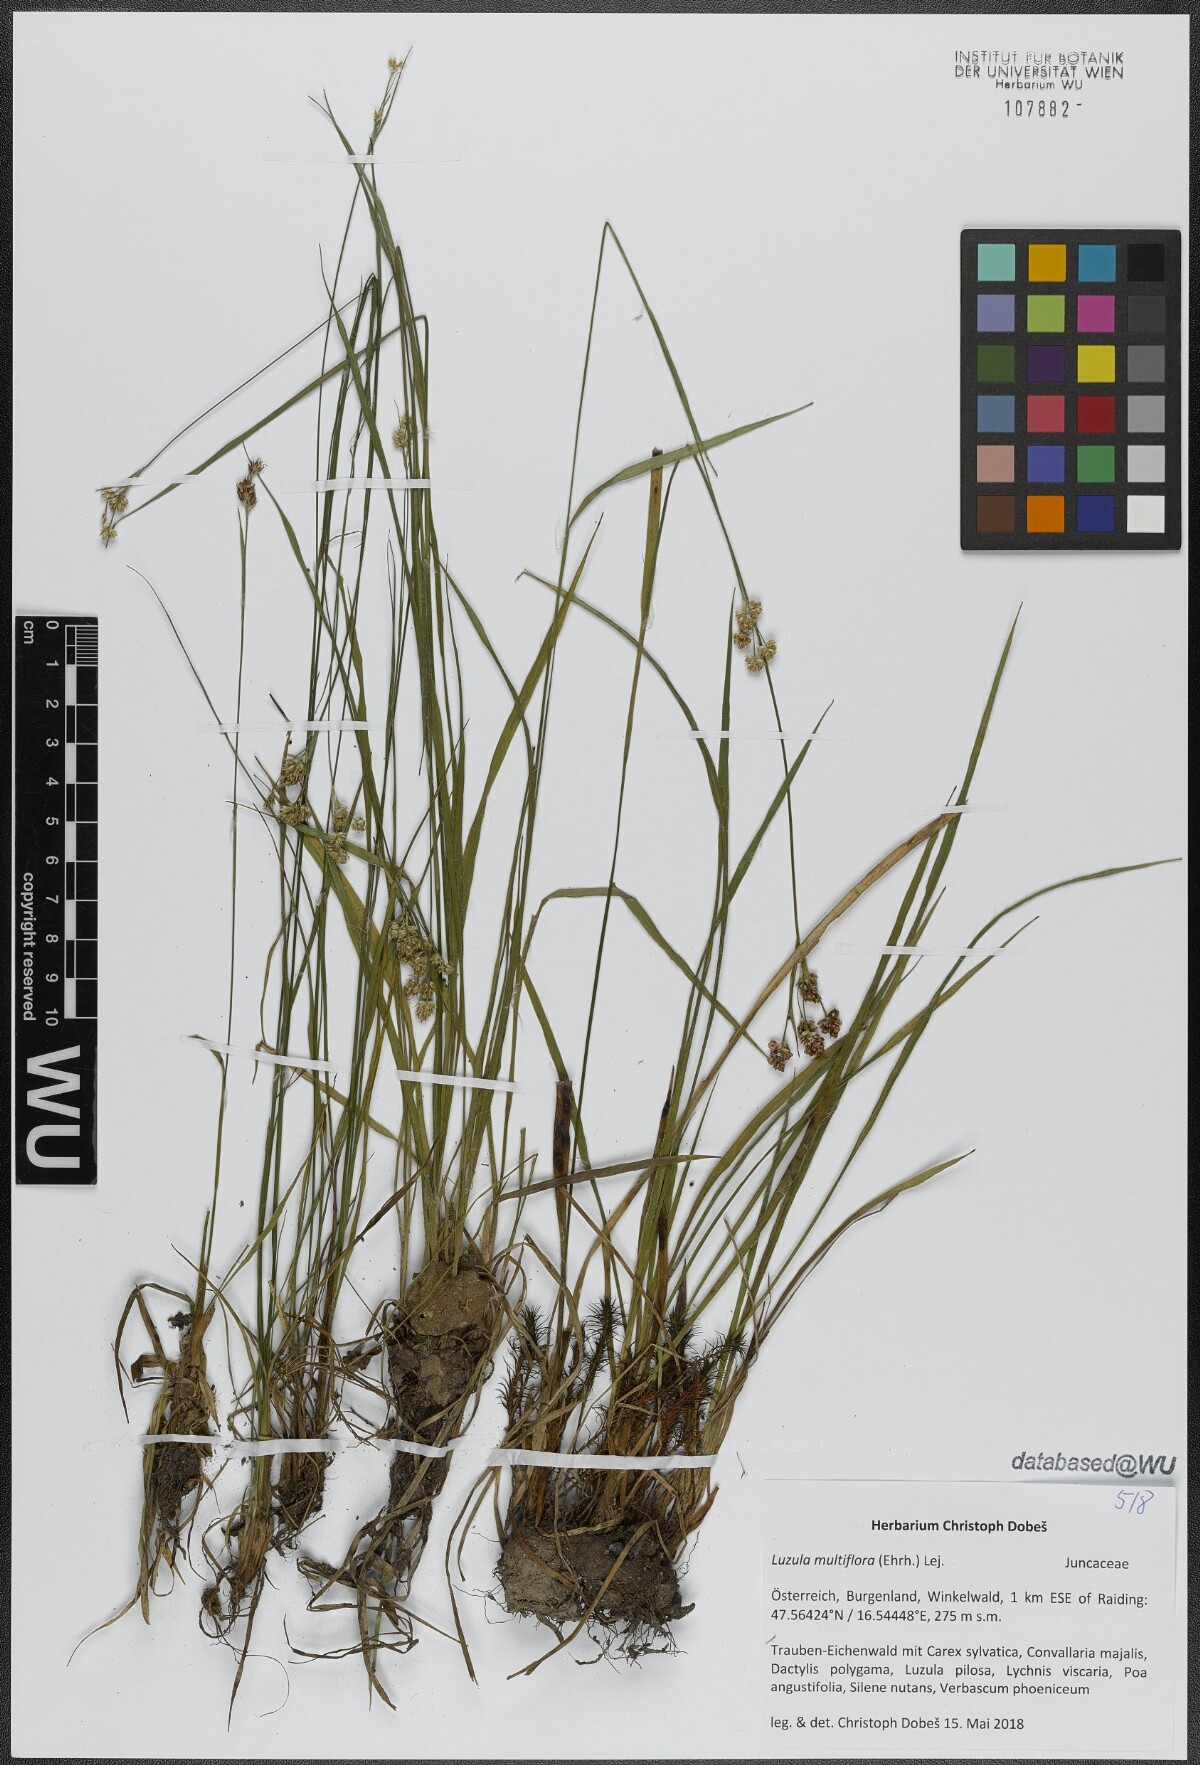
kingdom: Plantae
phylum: Tracheophyta
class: Liliopsida
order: Poales
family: Juncaceae
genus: Luzula
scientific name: Luzula multiflora
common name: Heath wood-rush
